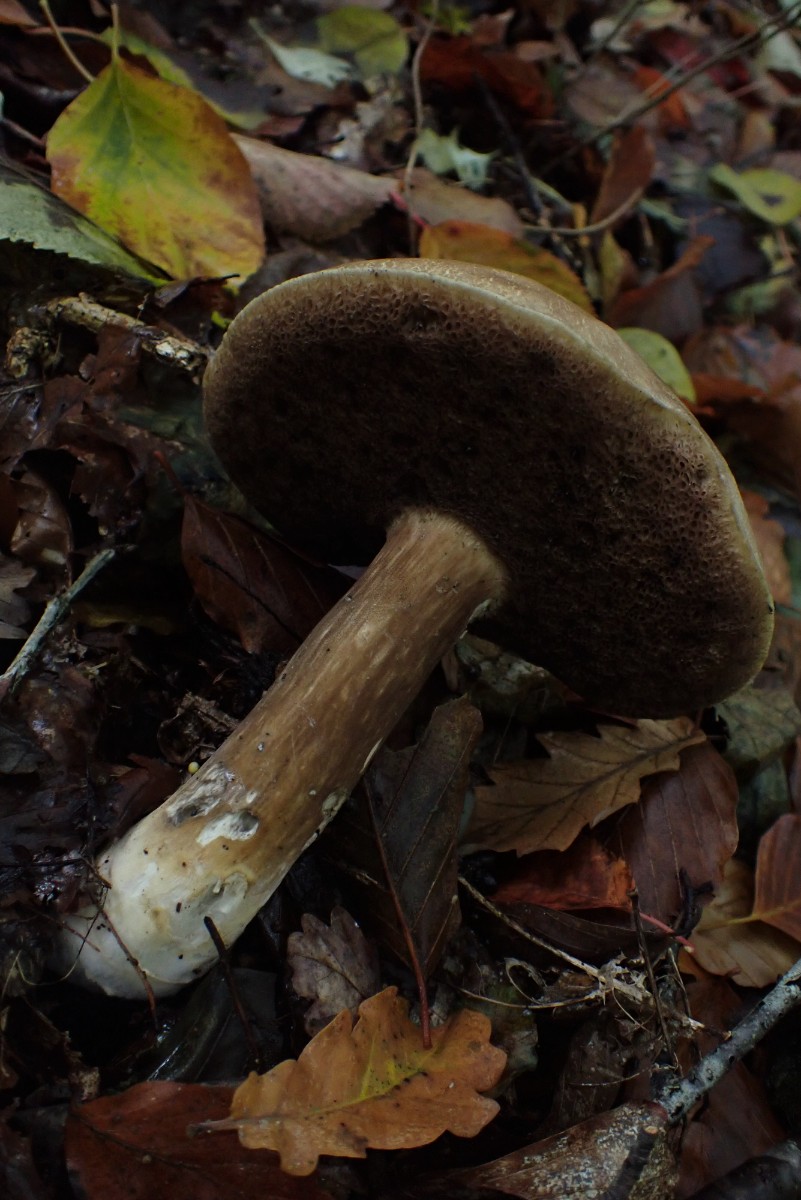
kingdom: Fungi
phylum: Basidiomycota
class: Agaricomycetes
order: Boletales
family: Boletaceae
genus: Porphyrellus
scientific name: Porphyrellus porphyrosporus
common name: sodrørhat
